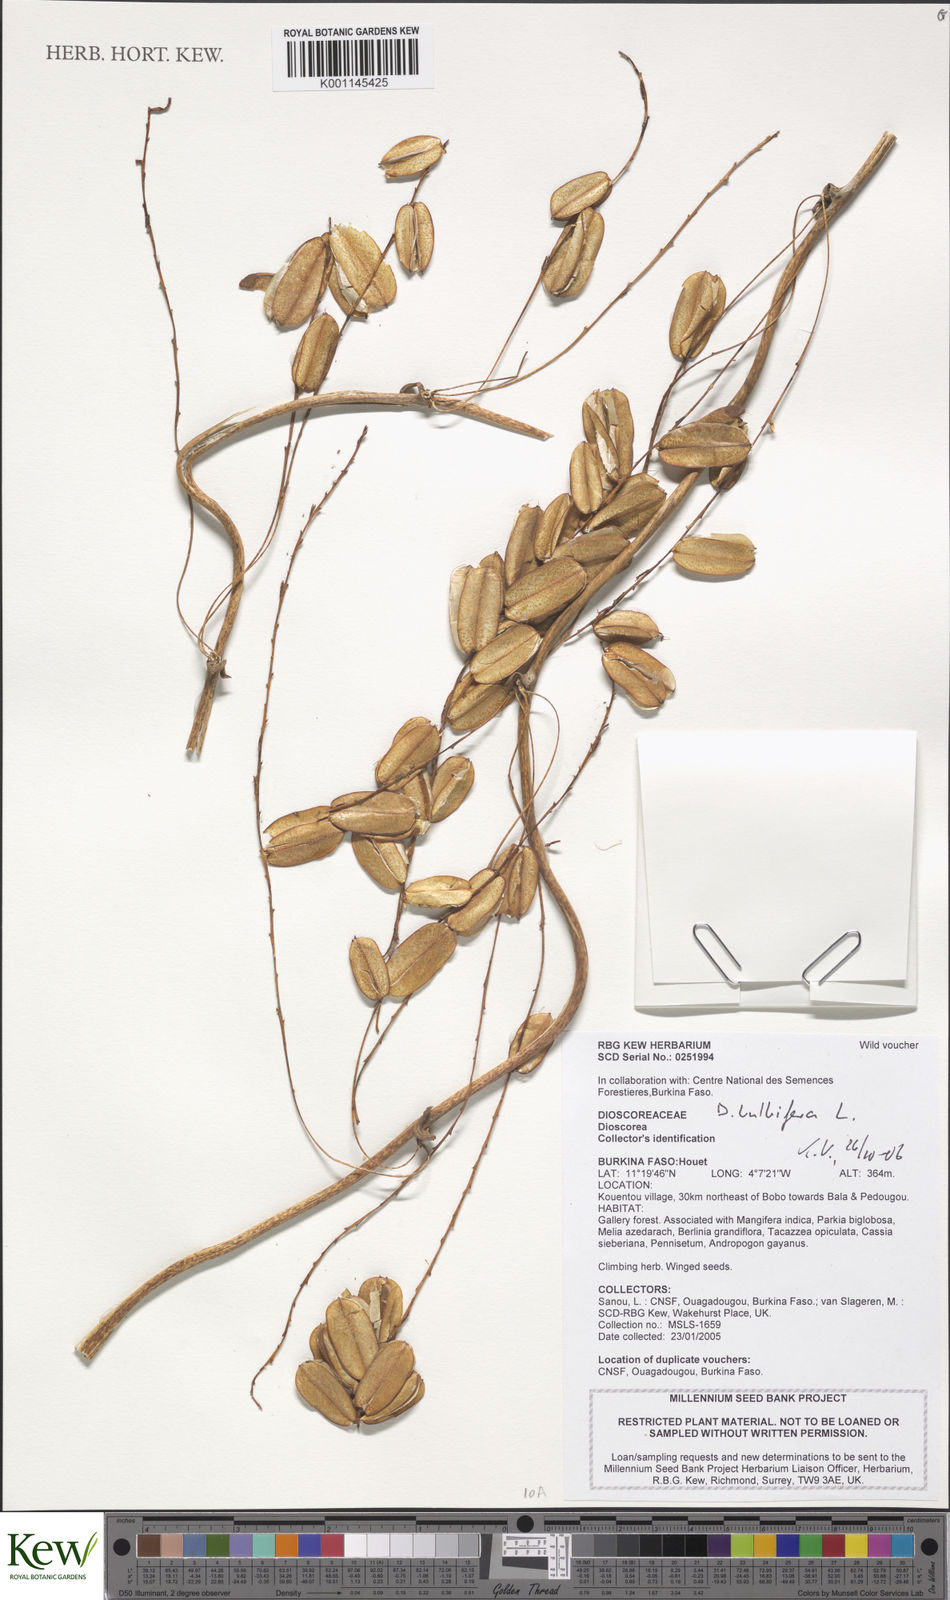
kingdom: Plantae
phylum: Tracheophyta
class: Liliopsida
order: Dioscoreales
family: Dioscoreaceae
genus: Dioscorea
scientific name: Dioscorea bulbifera
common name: Air yam
